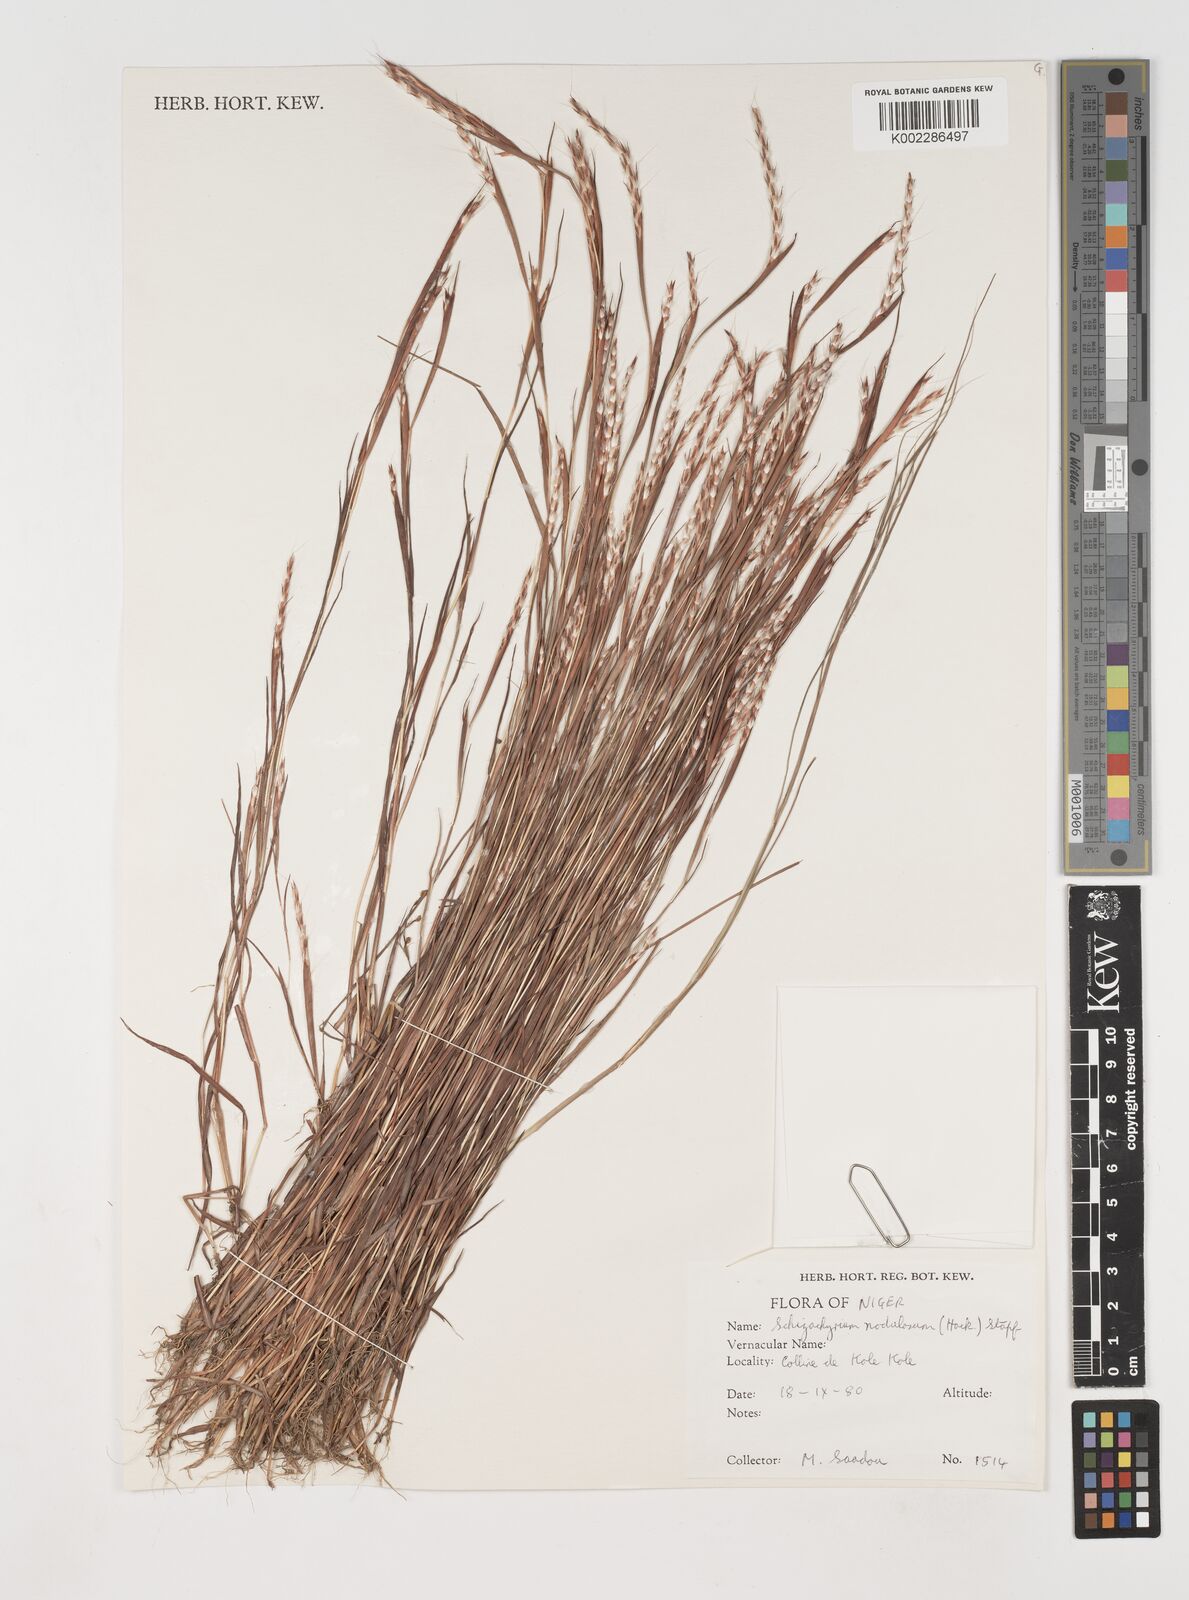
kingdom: Plantae
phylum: Tracheophyta
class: Liliopsida
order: Poales
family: Poaceae
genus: Schizachyrium
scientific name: Schizachyrium nodulosum
